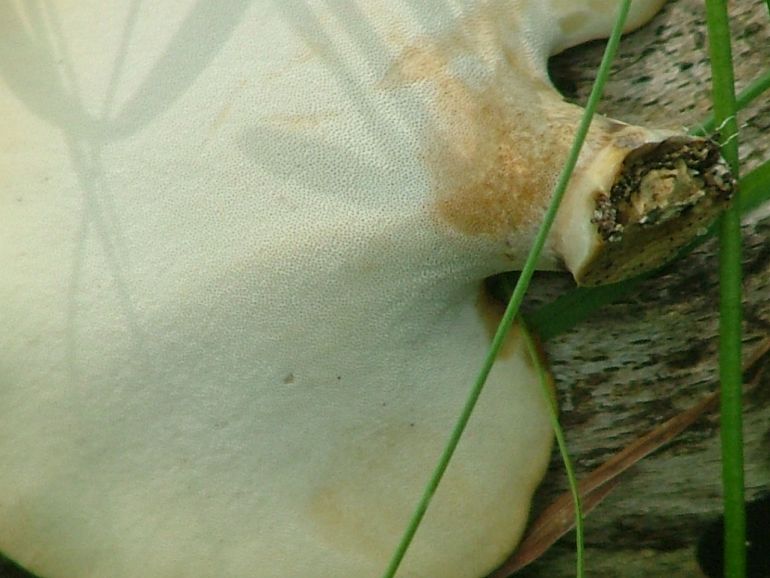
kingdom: Fungi
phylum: Basidiomycota
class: Agaricomycetes
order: Polyporales
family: Polyporaceae
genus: Cerioporus
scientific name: Cerioporus varius
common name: foranderlig stilkporesvamp
